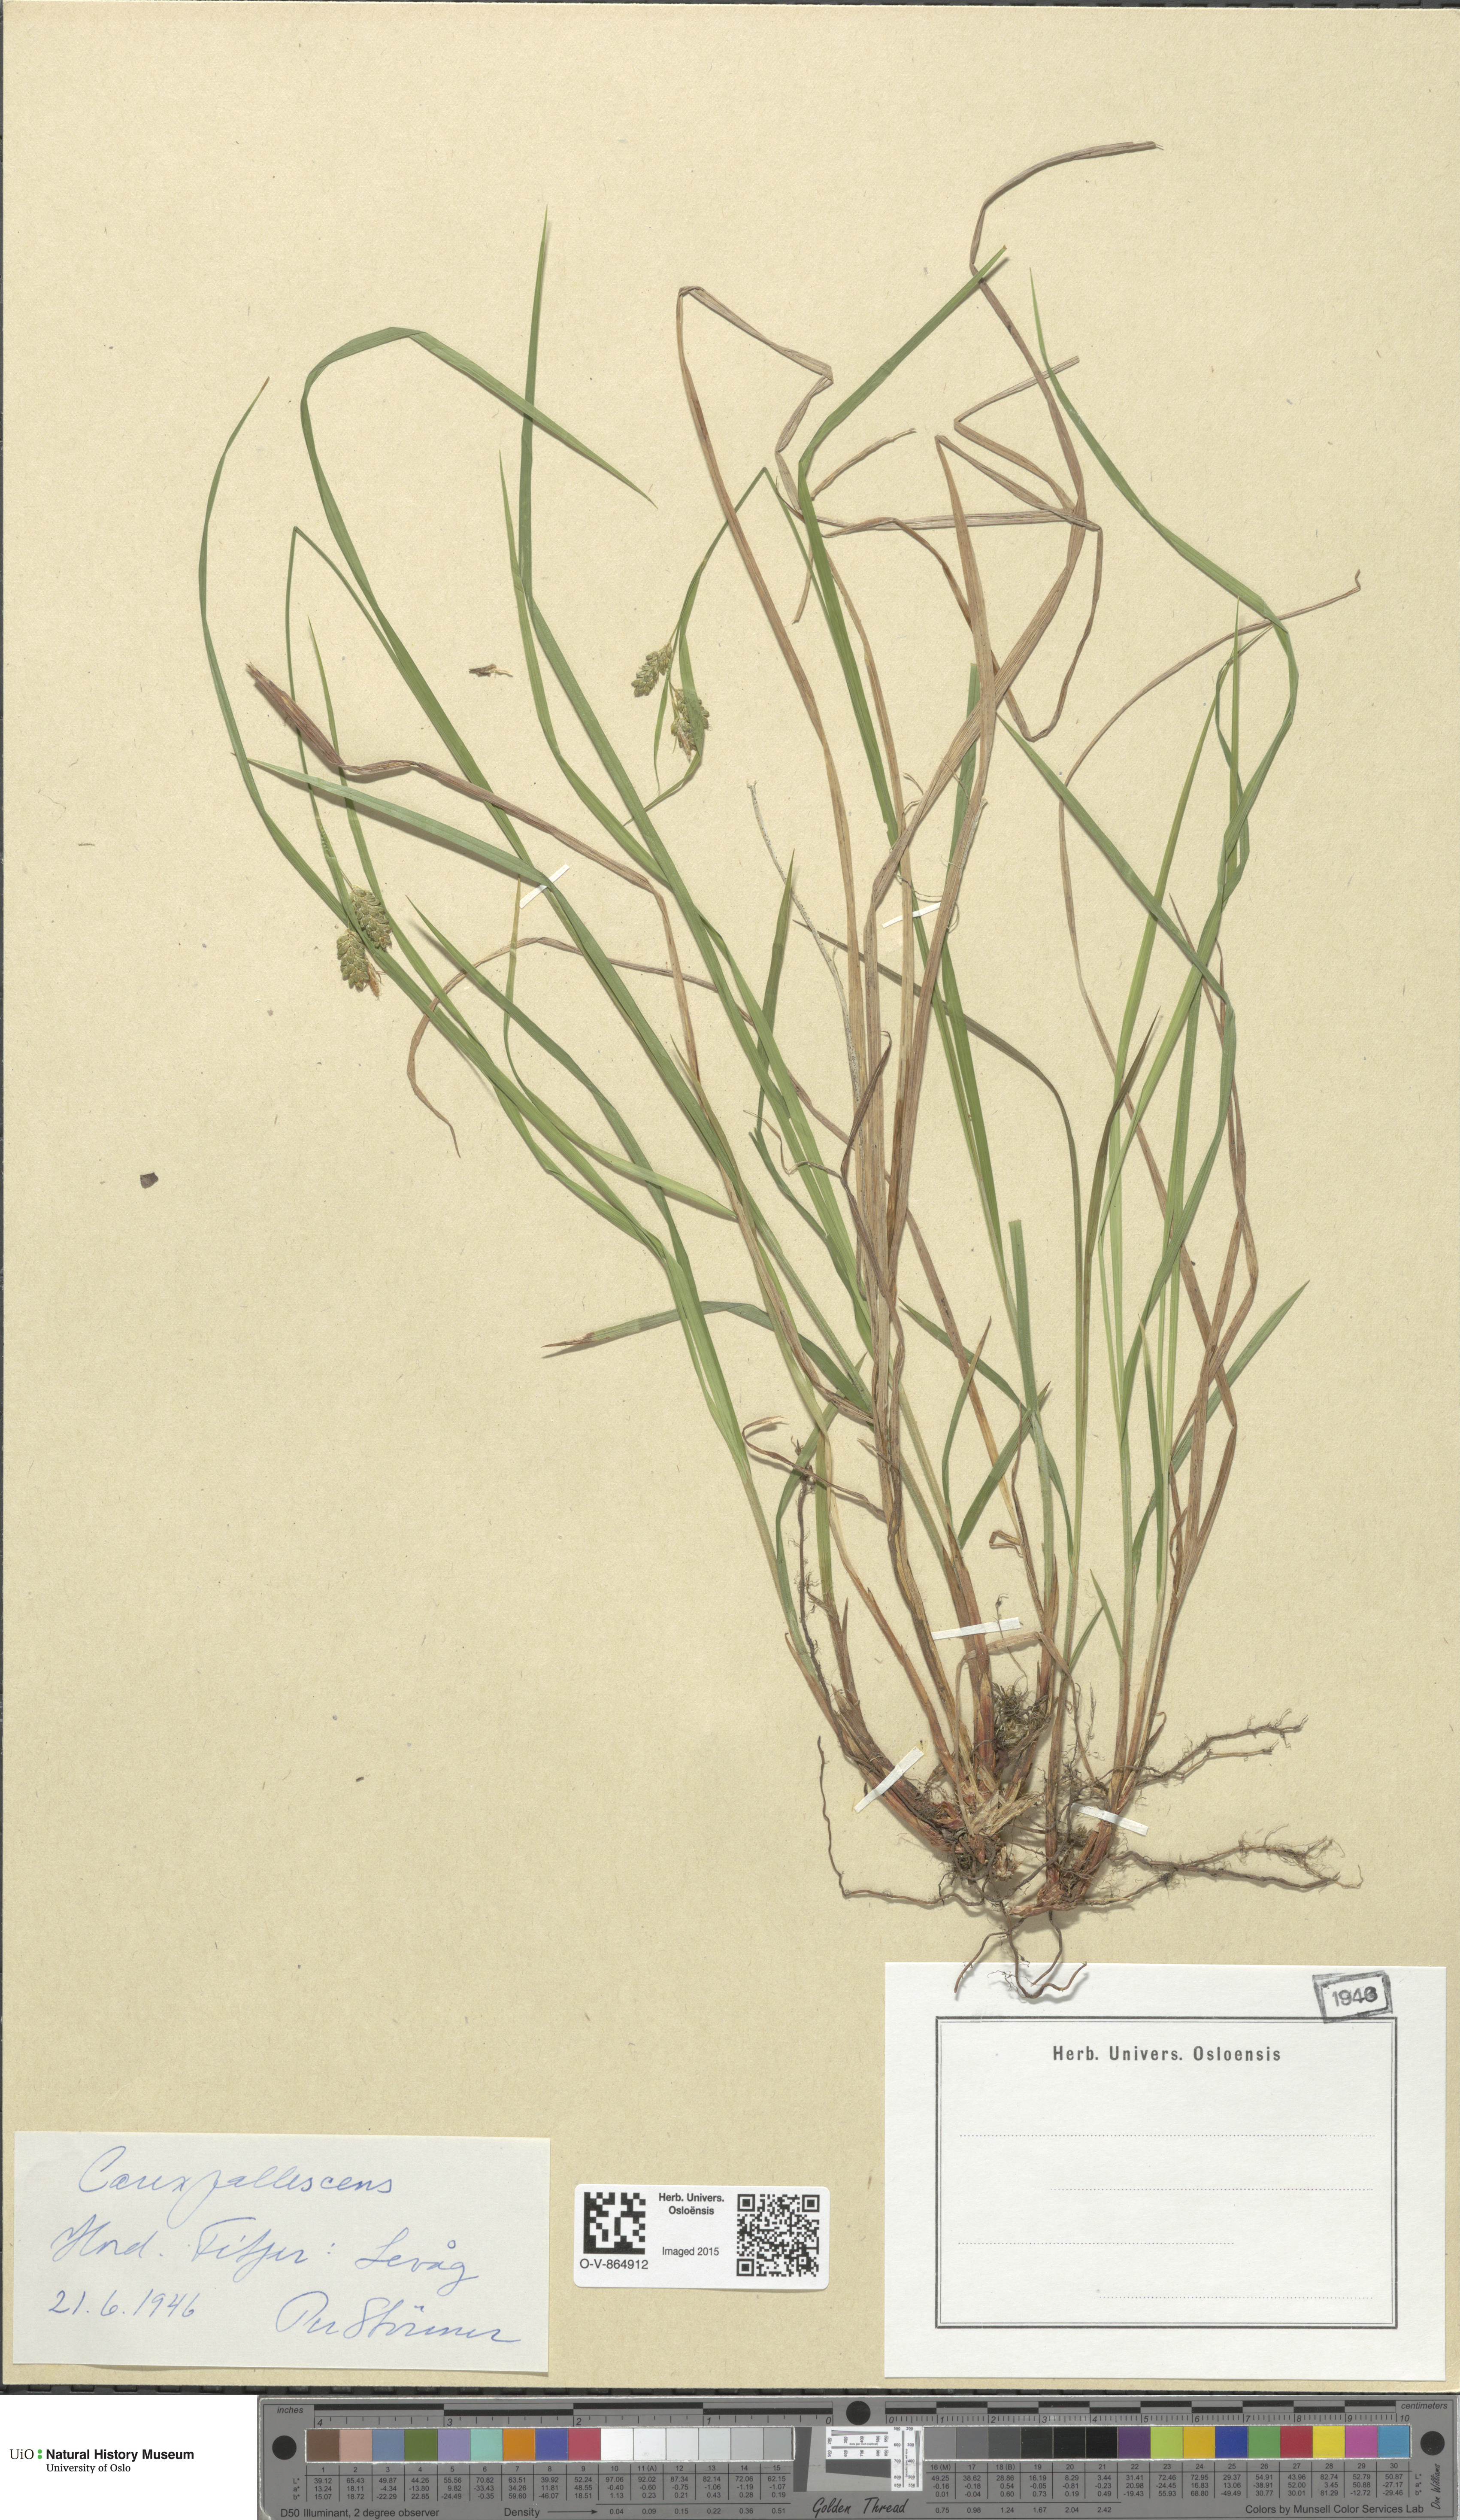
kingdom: Plantae
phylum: Tracheophyta
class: Liliopsida
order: Poales
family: Cyperaceae
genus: Carex
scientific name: Carex pallescens
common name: Pale sedge
